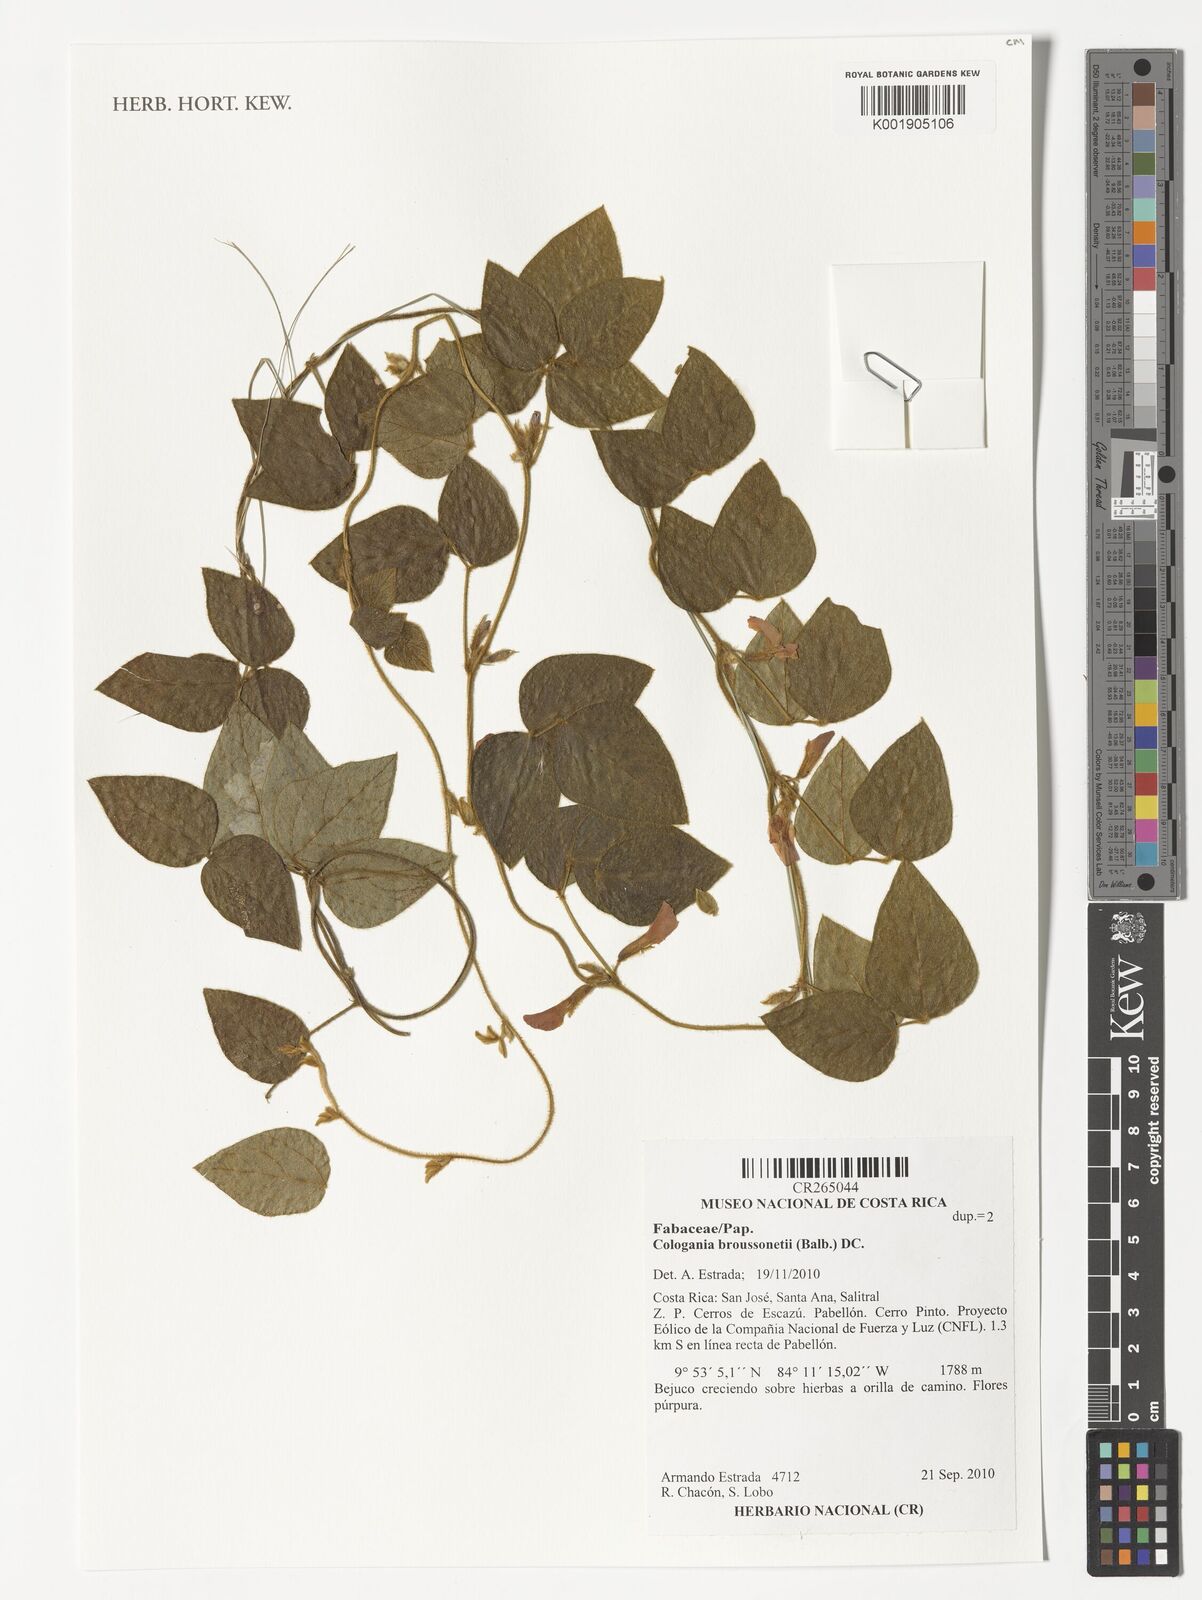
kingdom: Plantae
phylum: Tracheophyta
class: Magnoliopsida
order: Fabales
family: Fabaceae
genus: Cologania
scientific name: Cologania broussonetii
